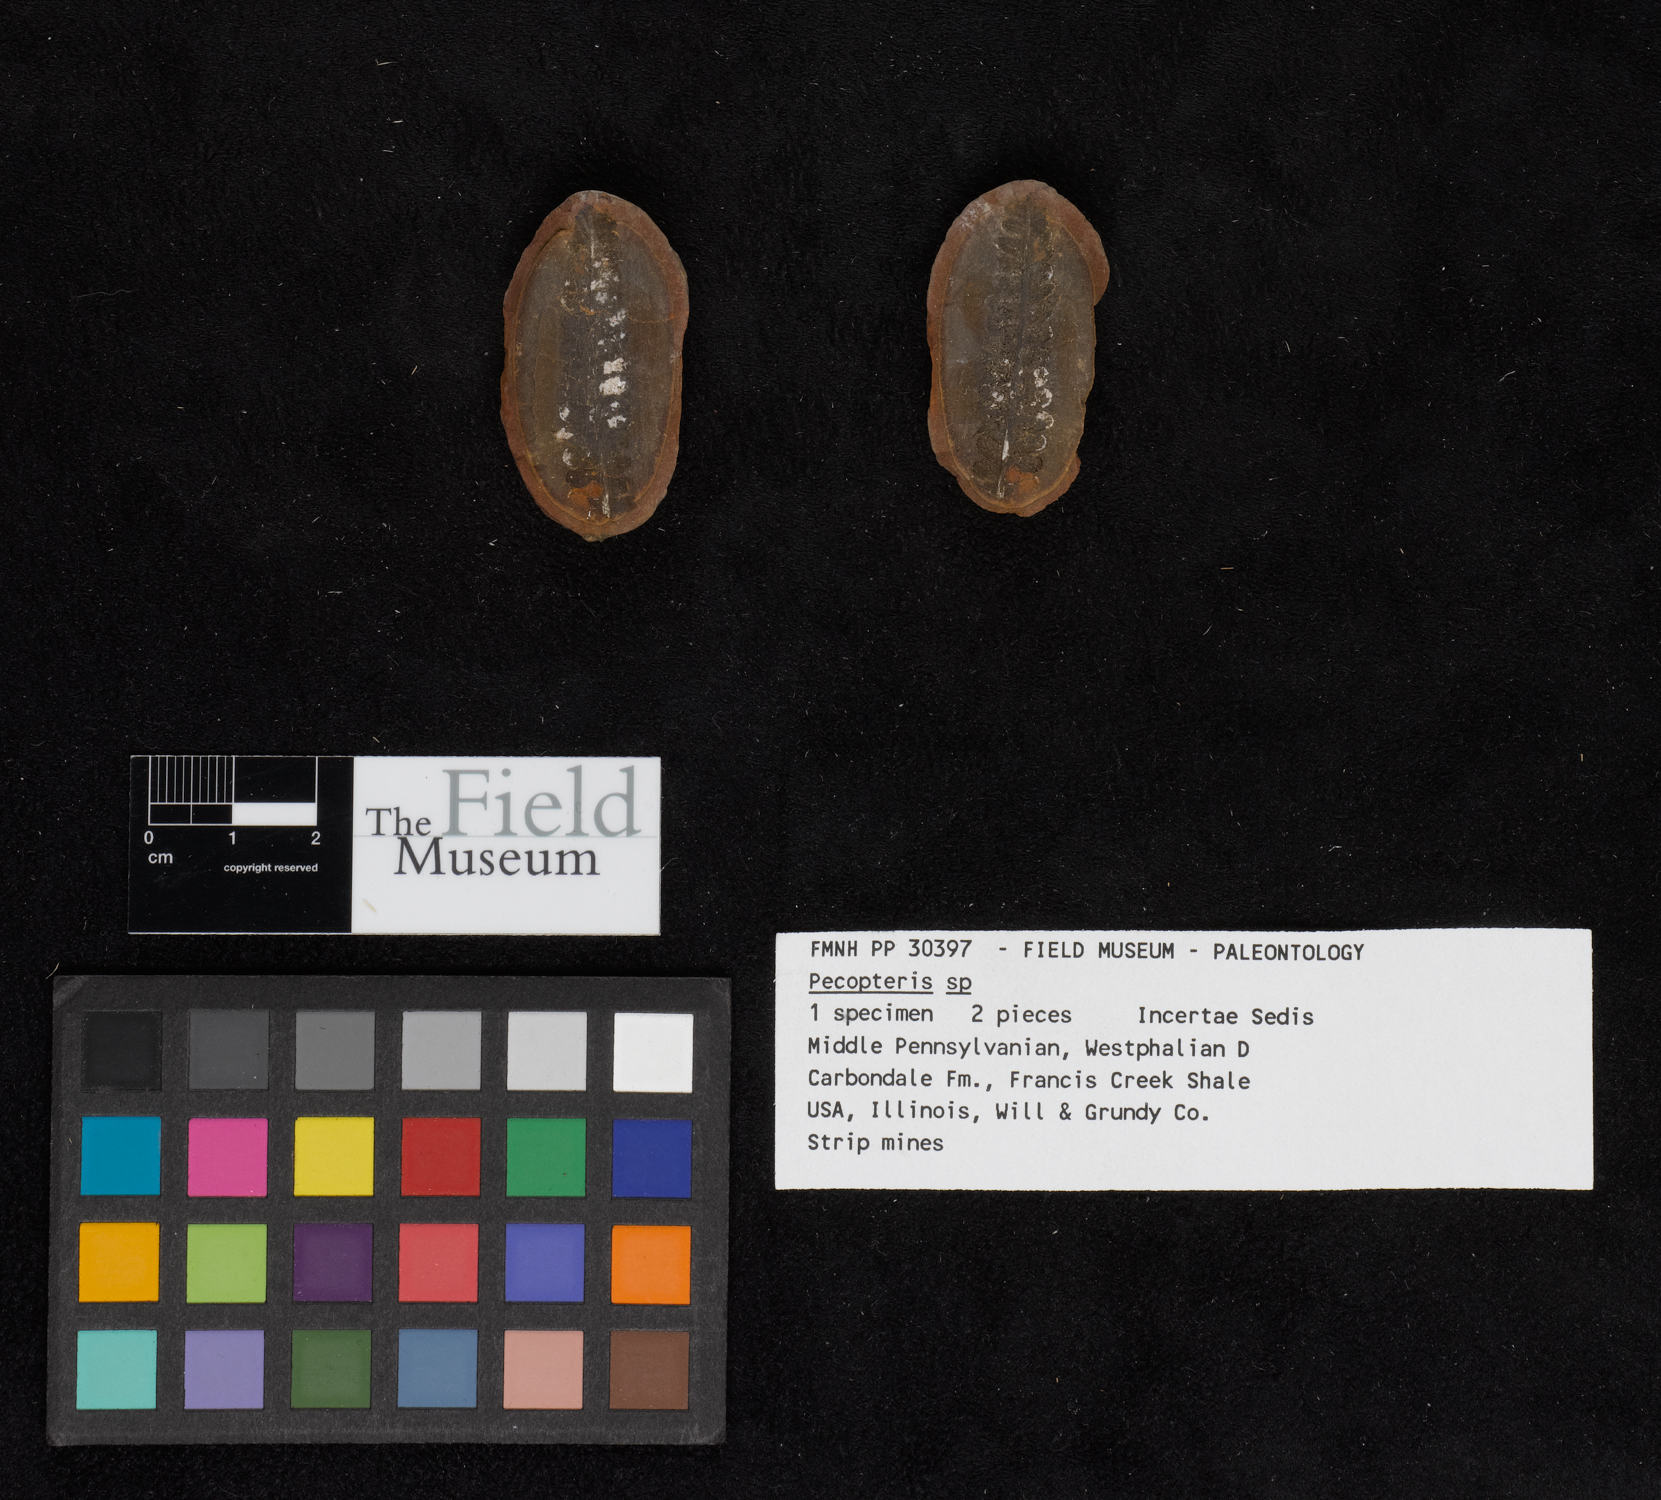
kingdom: Plantae
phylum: Tracheophyta
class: Polypodiopsida
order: Marattiales
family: Asterothecaceae
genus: Pecopteris
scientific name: Pecopteris
